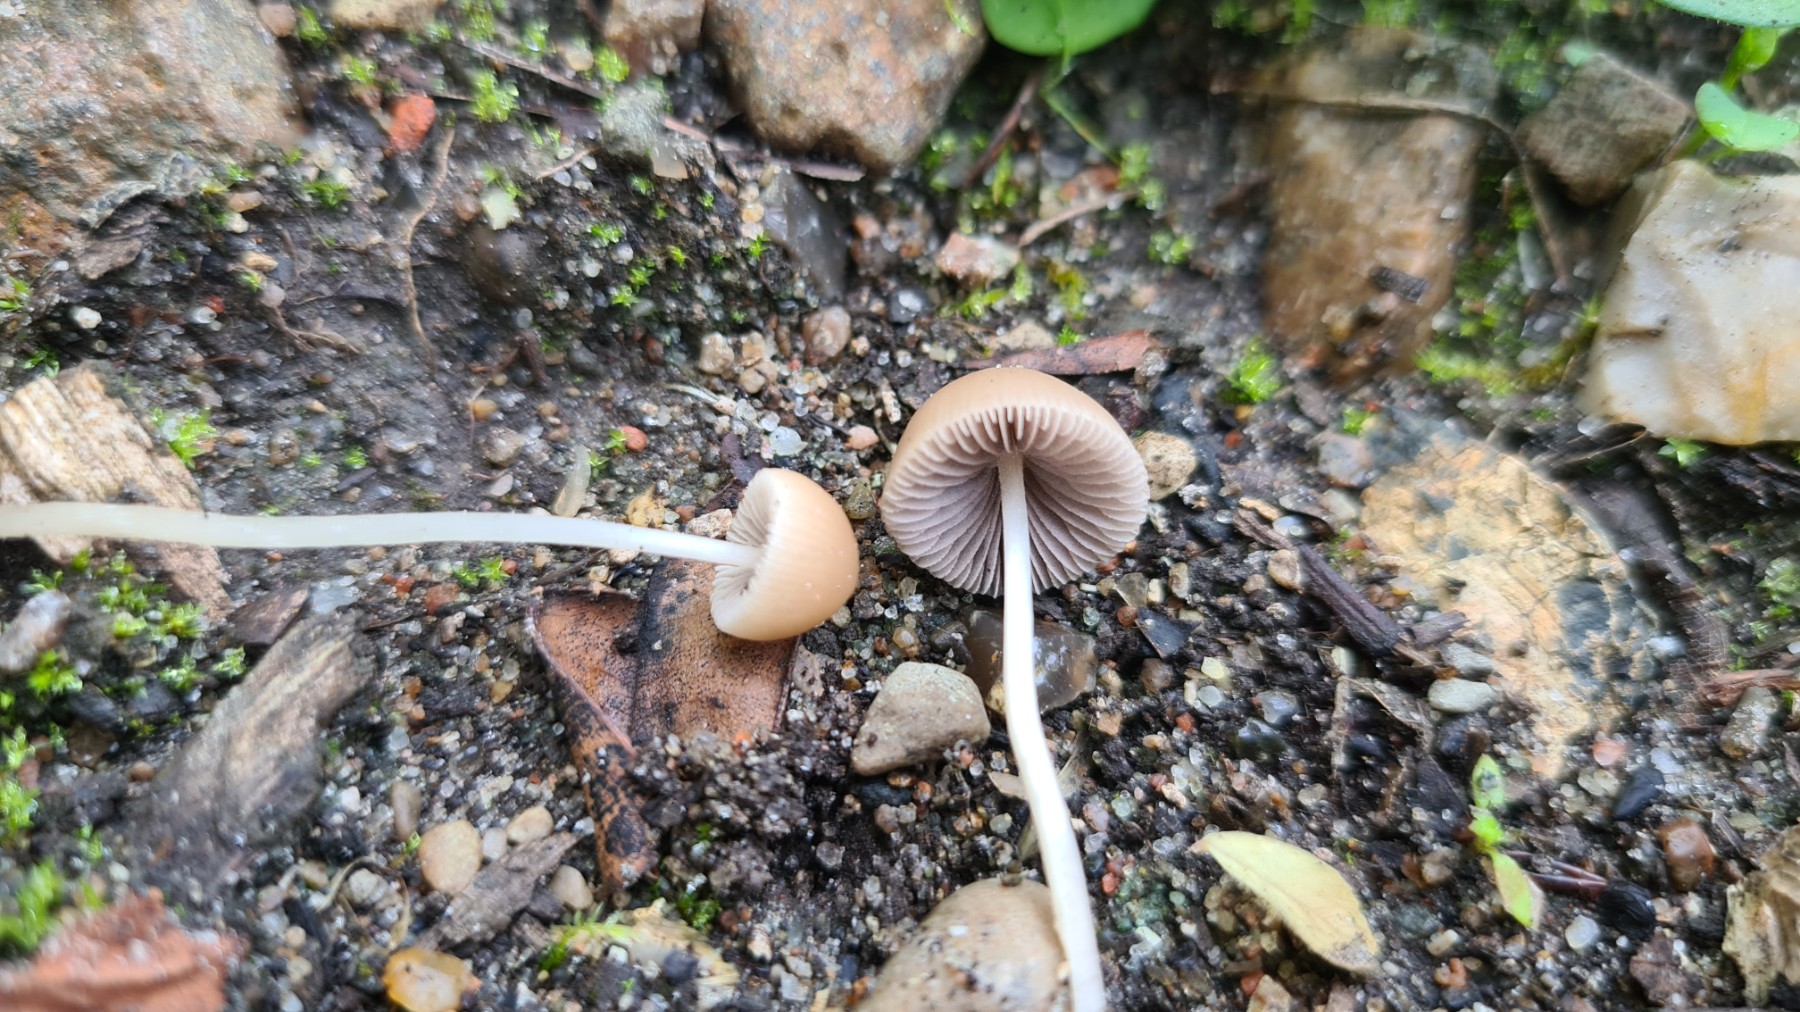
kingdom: Fungi
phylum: Basidiomycota
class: Agaricomycetes
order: Agaricales
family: Psathyrellaceae
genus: Psathyrella
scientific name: Psathyrella
